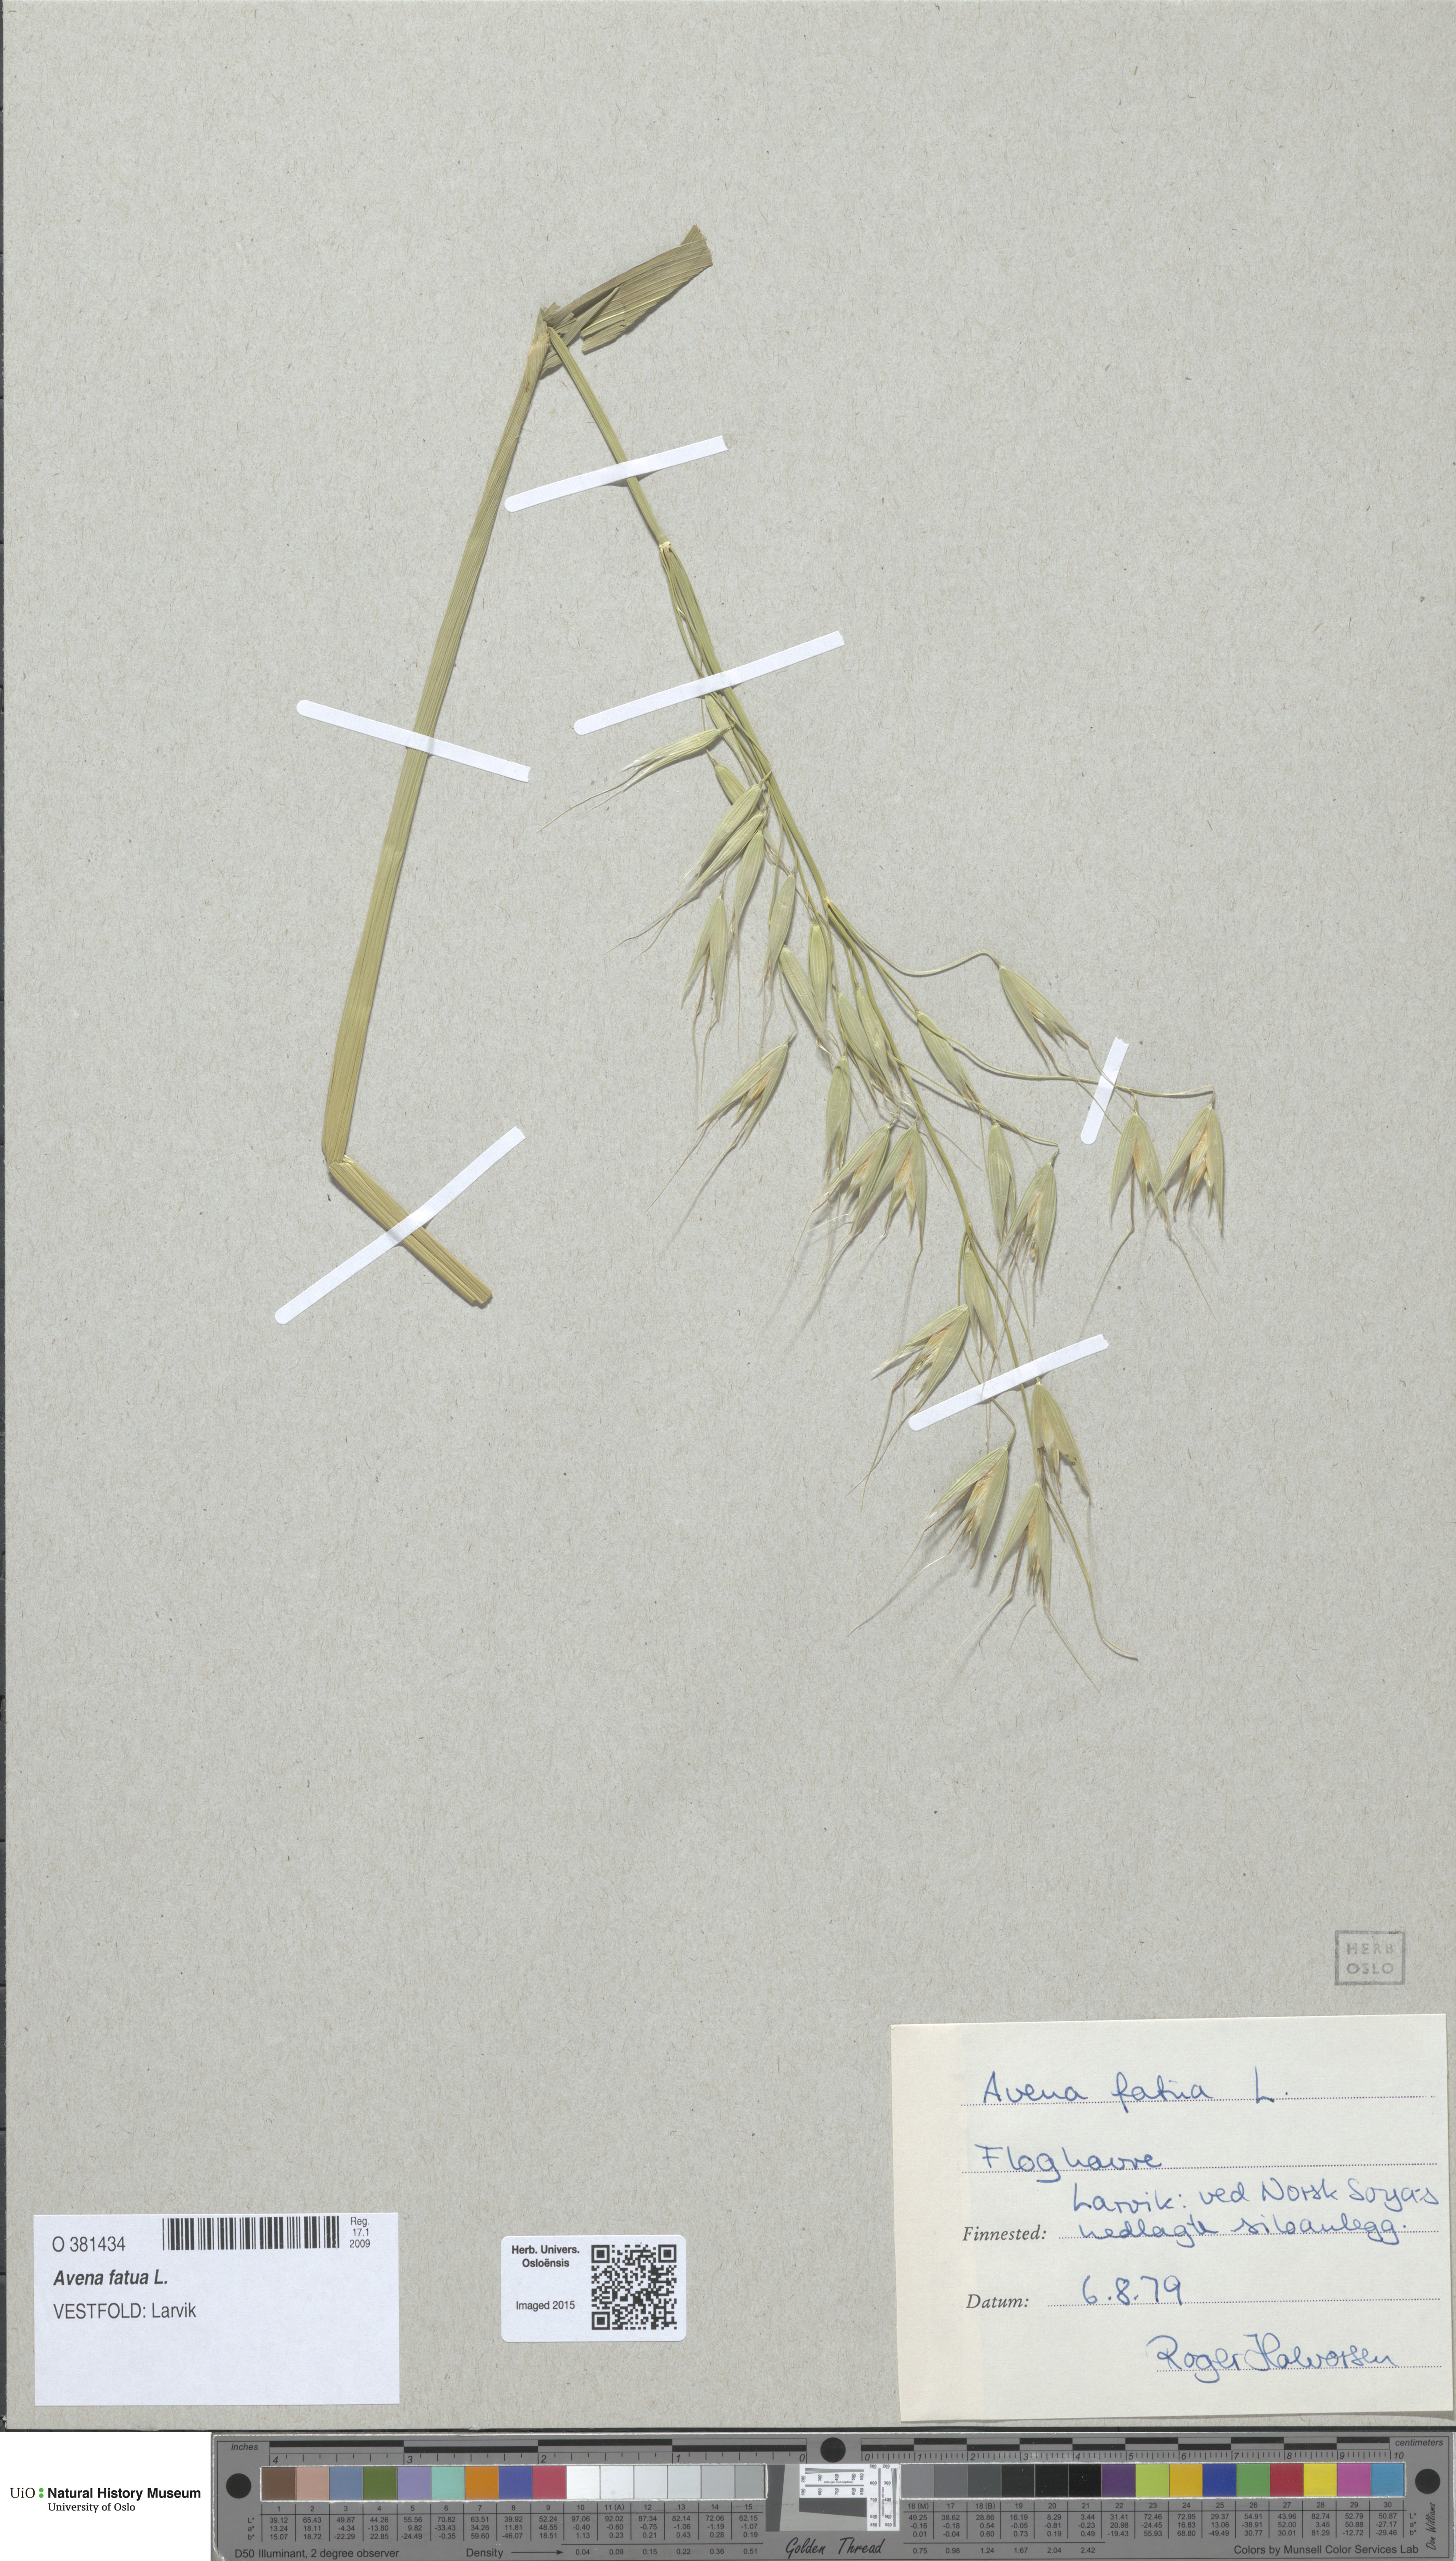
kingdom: Plantae
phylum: Tracheophyta
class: Liliopsida
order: Poales
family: Poaceae
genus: Avena
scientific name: Avena fatua
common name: Wild oat
